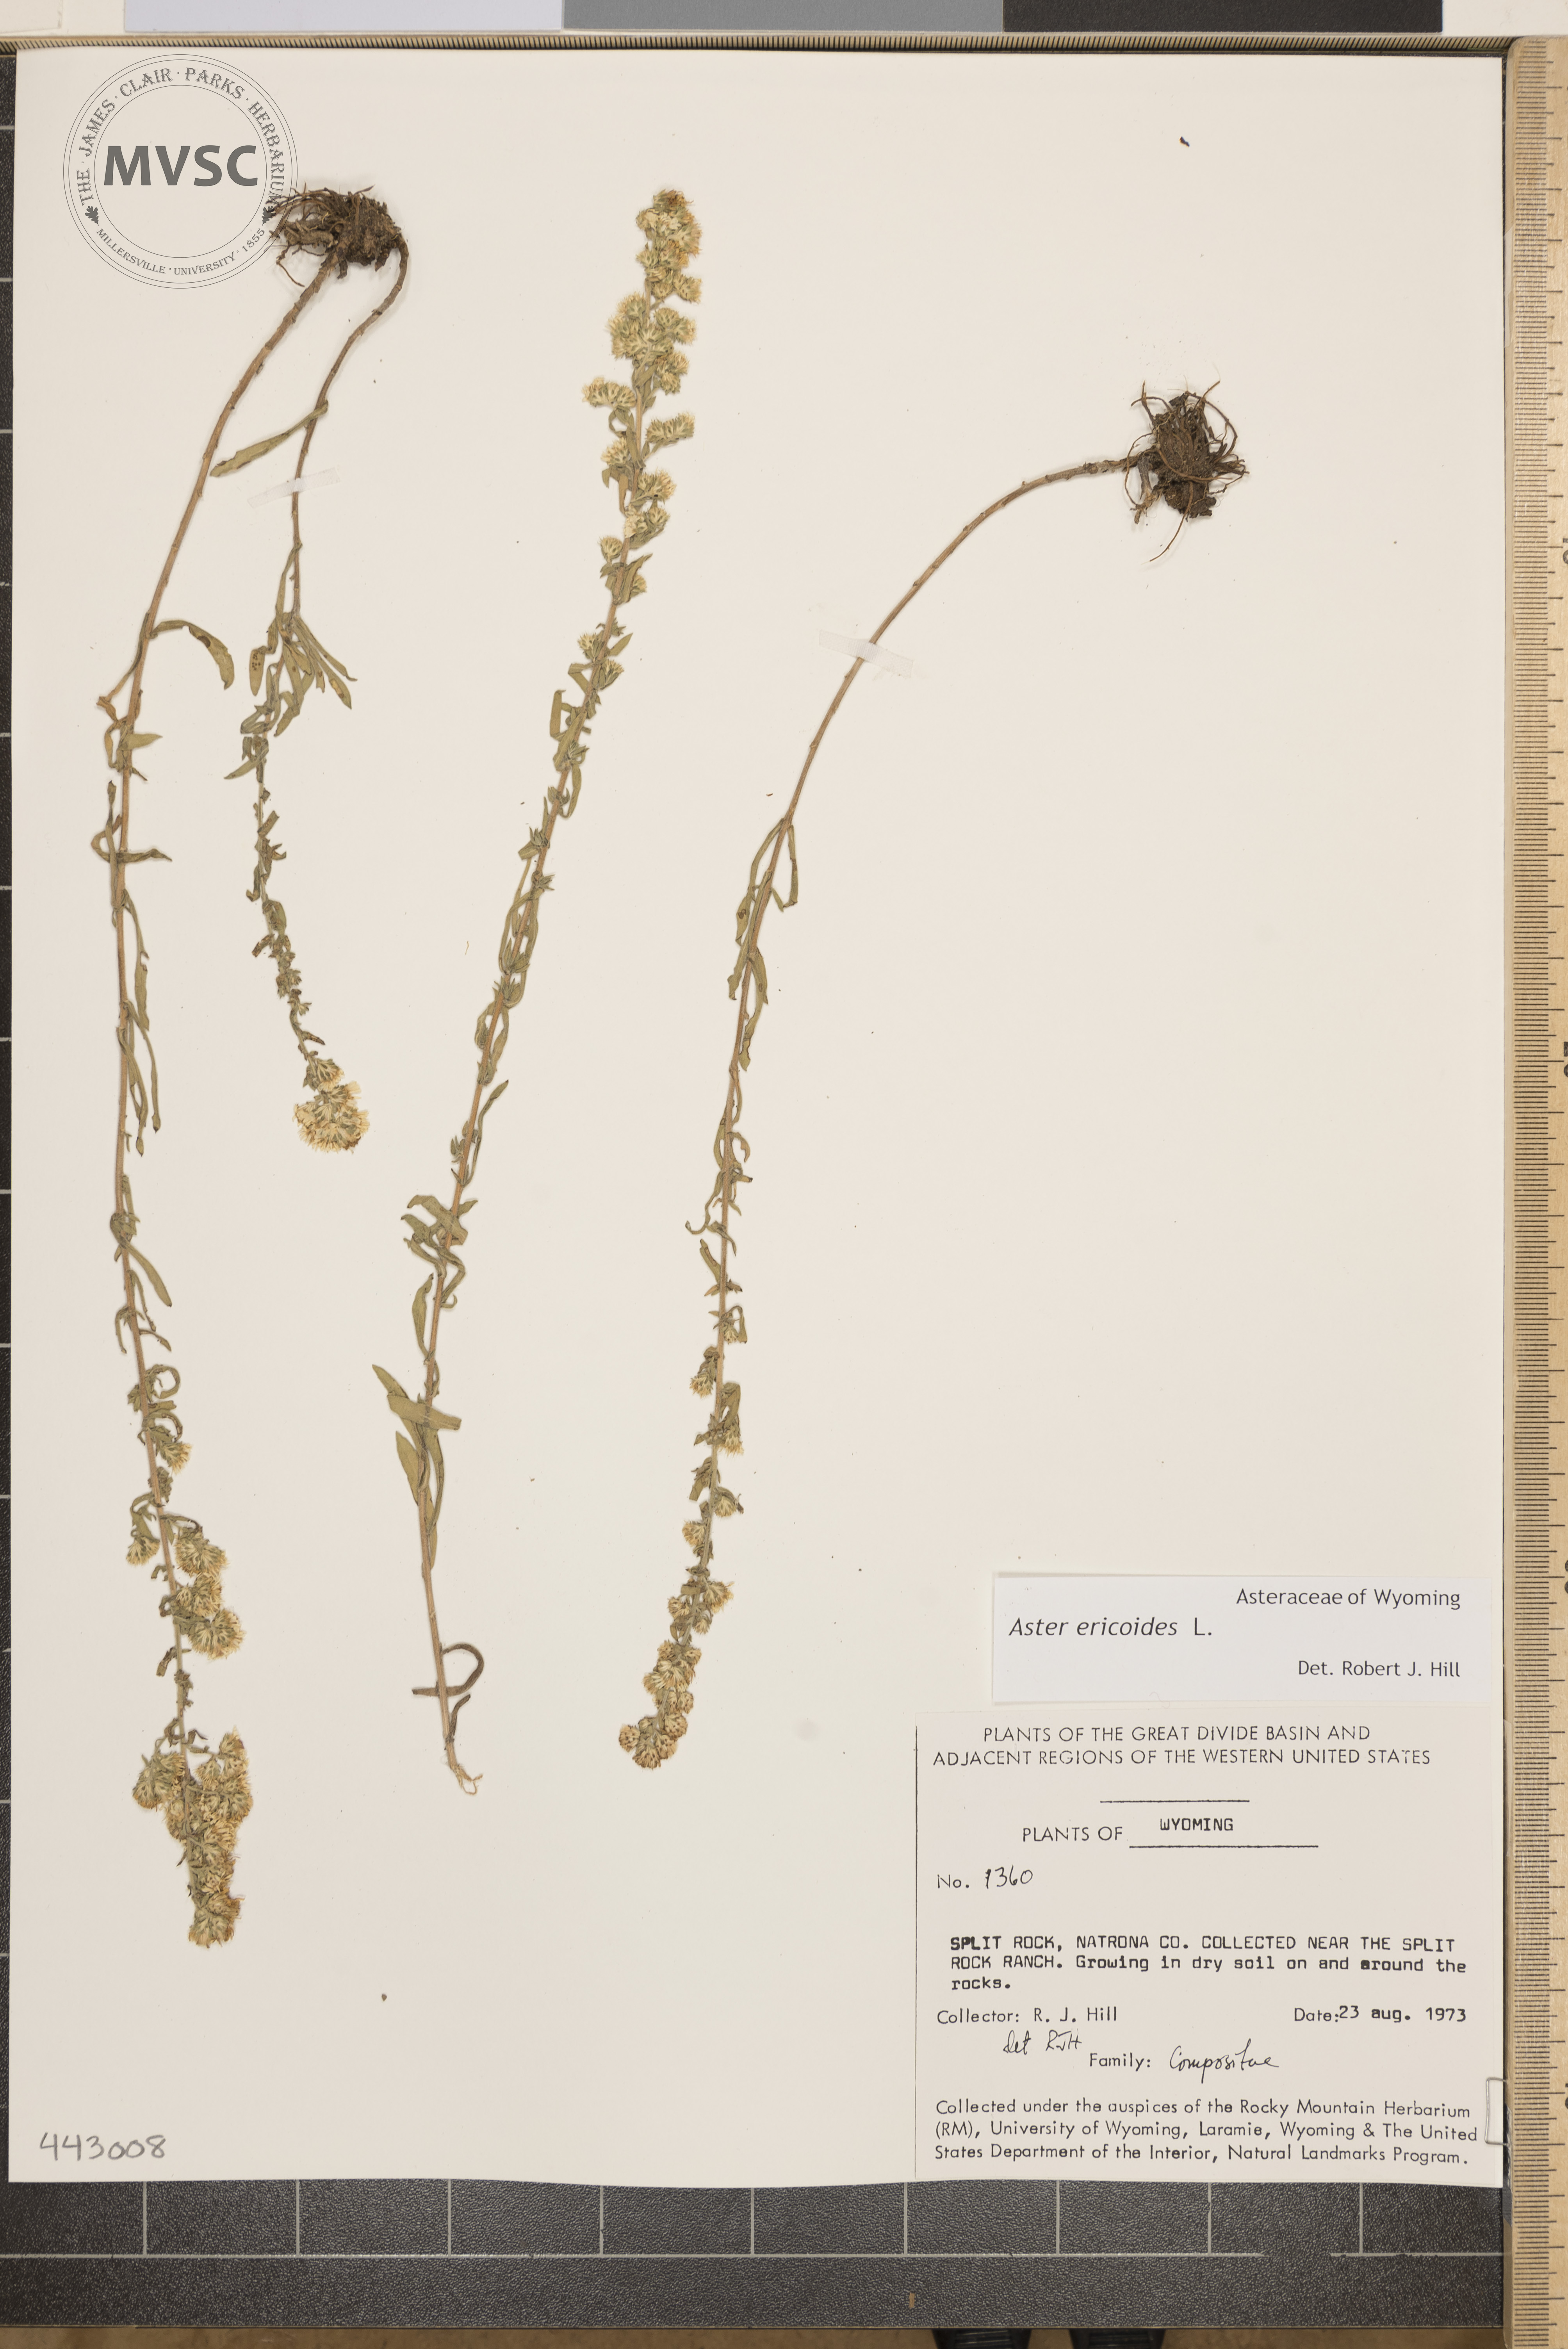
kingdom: Plantae
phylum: Tracheophyta
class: Magnoliopsida
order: Asterales
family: Asteraceae
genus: Symphyotrichum
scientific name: Symphyotrichum ericoides
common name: Heath aster
